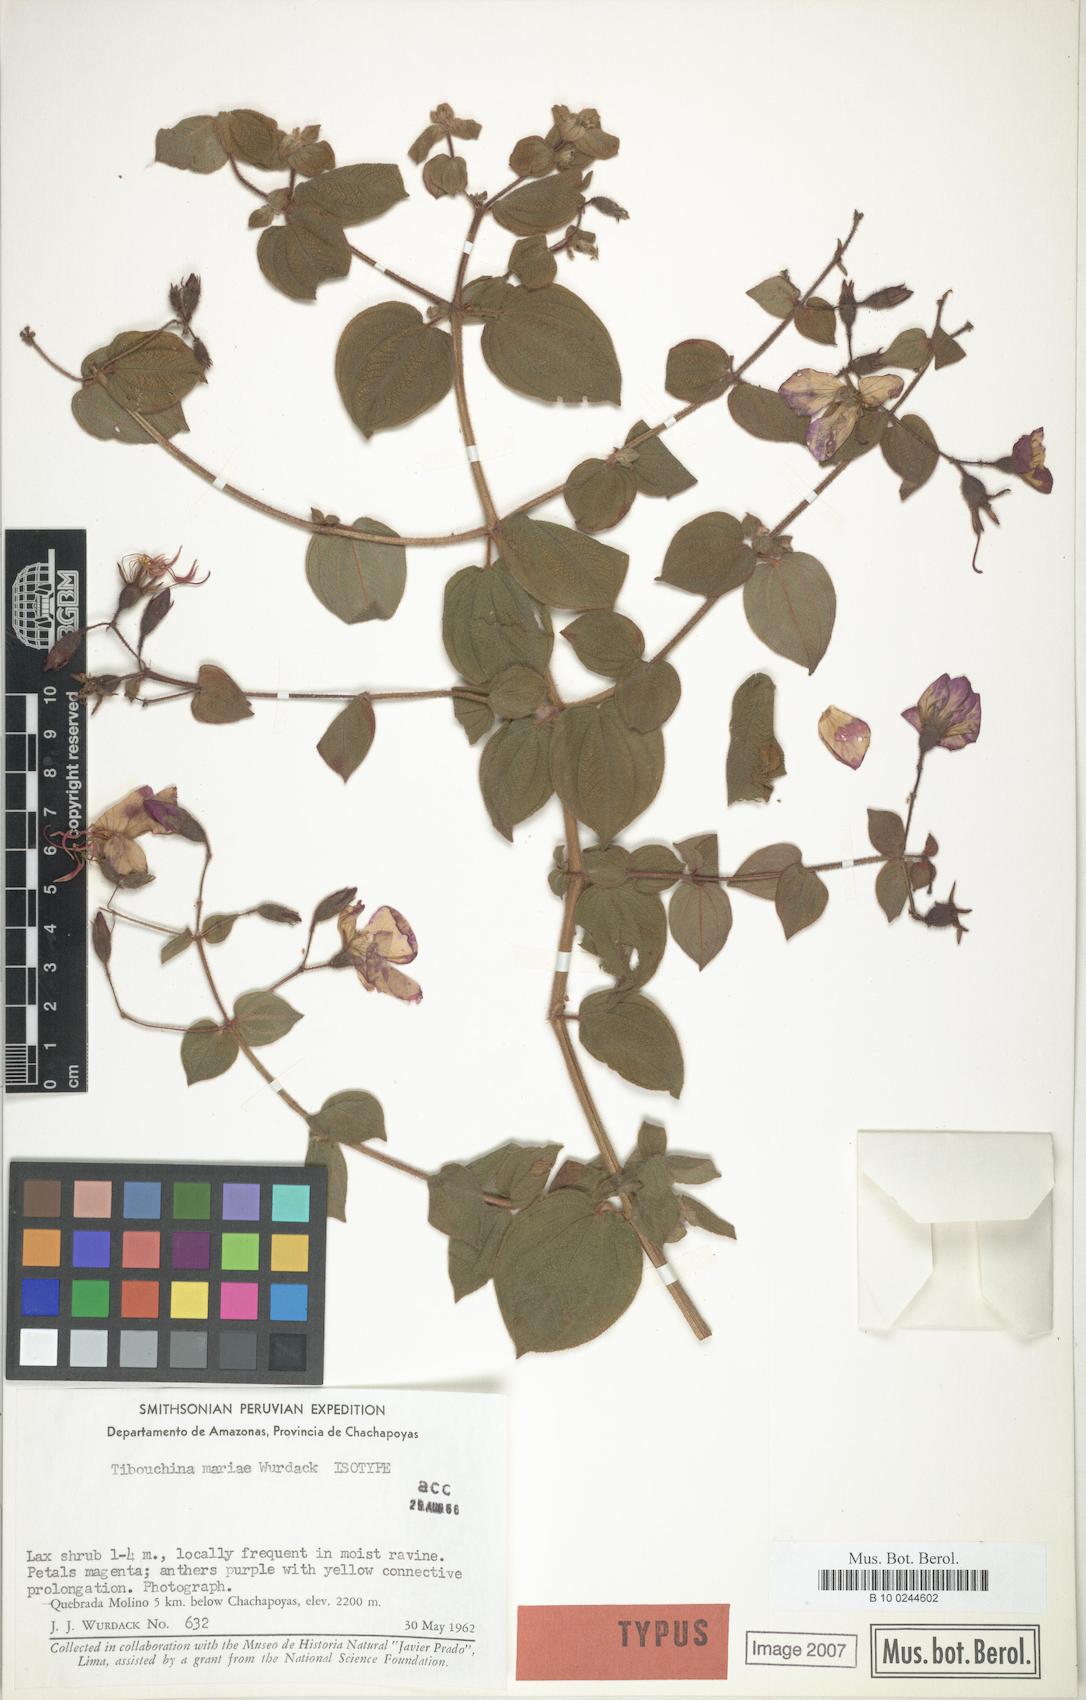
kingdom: Plantae
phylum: Tracheophyta
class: Magnoliopsida
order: Myrtales
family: Melastomataceae
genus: Chaetogastra
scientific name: Chaetogastra mariae
